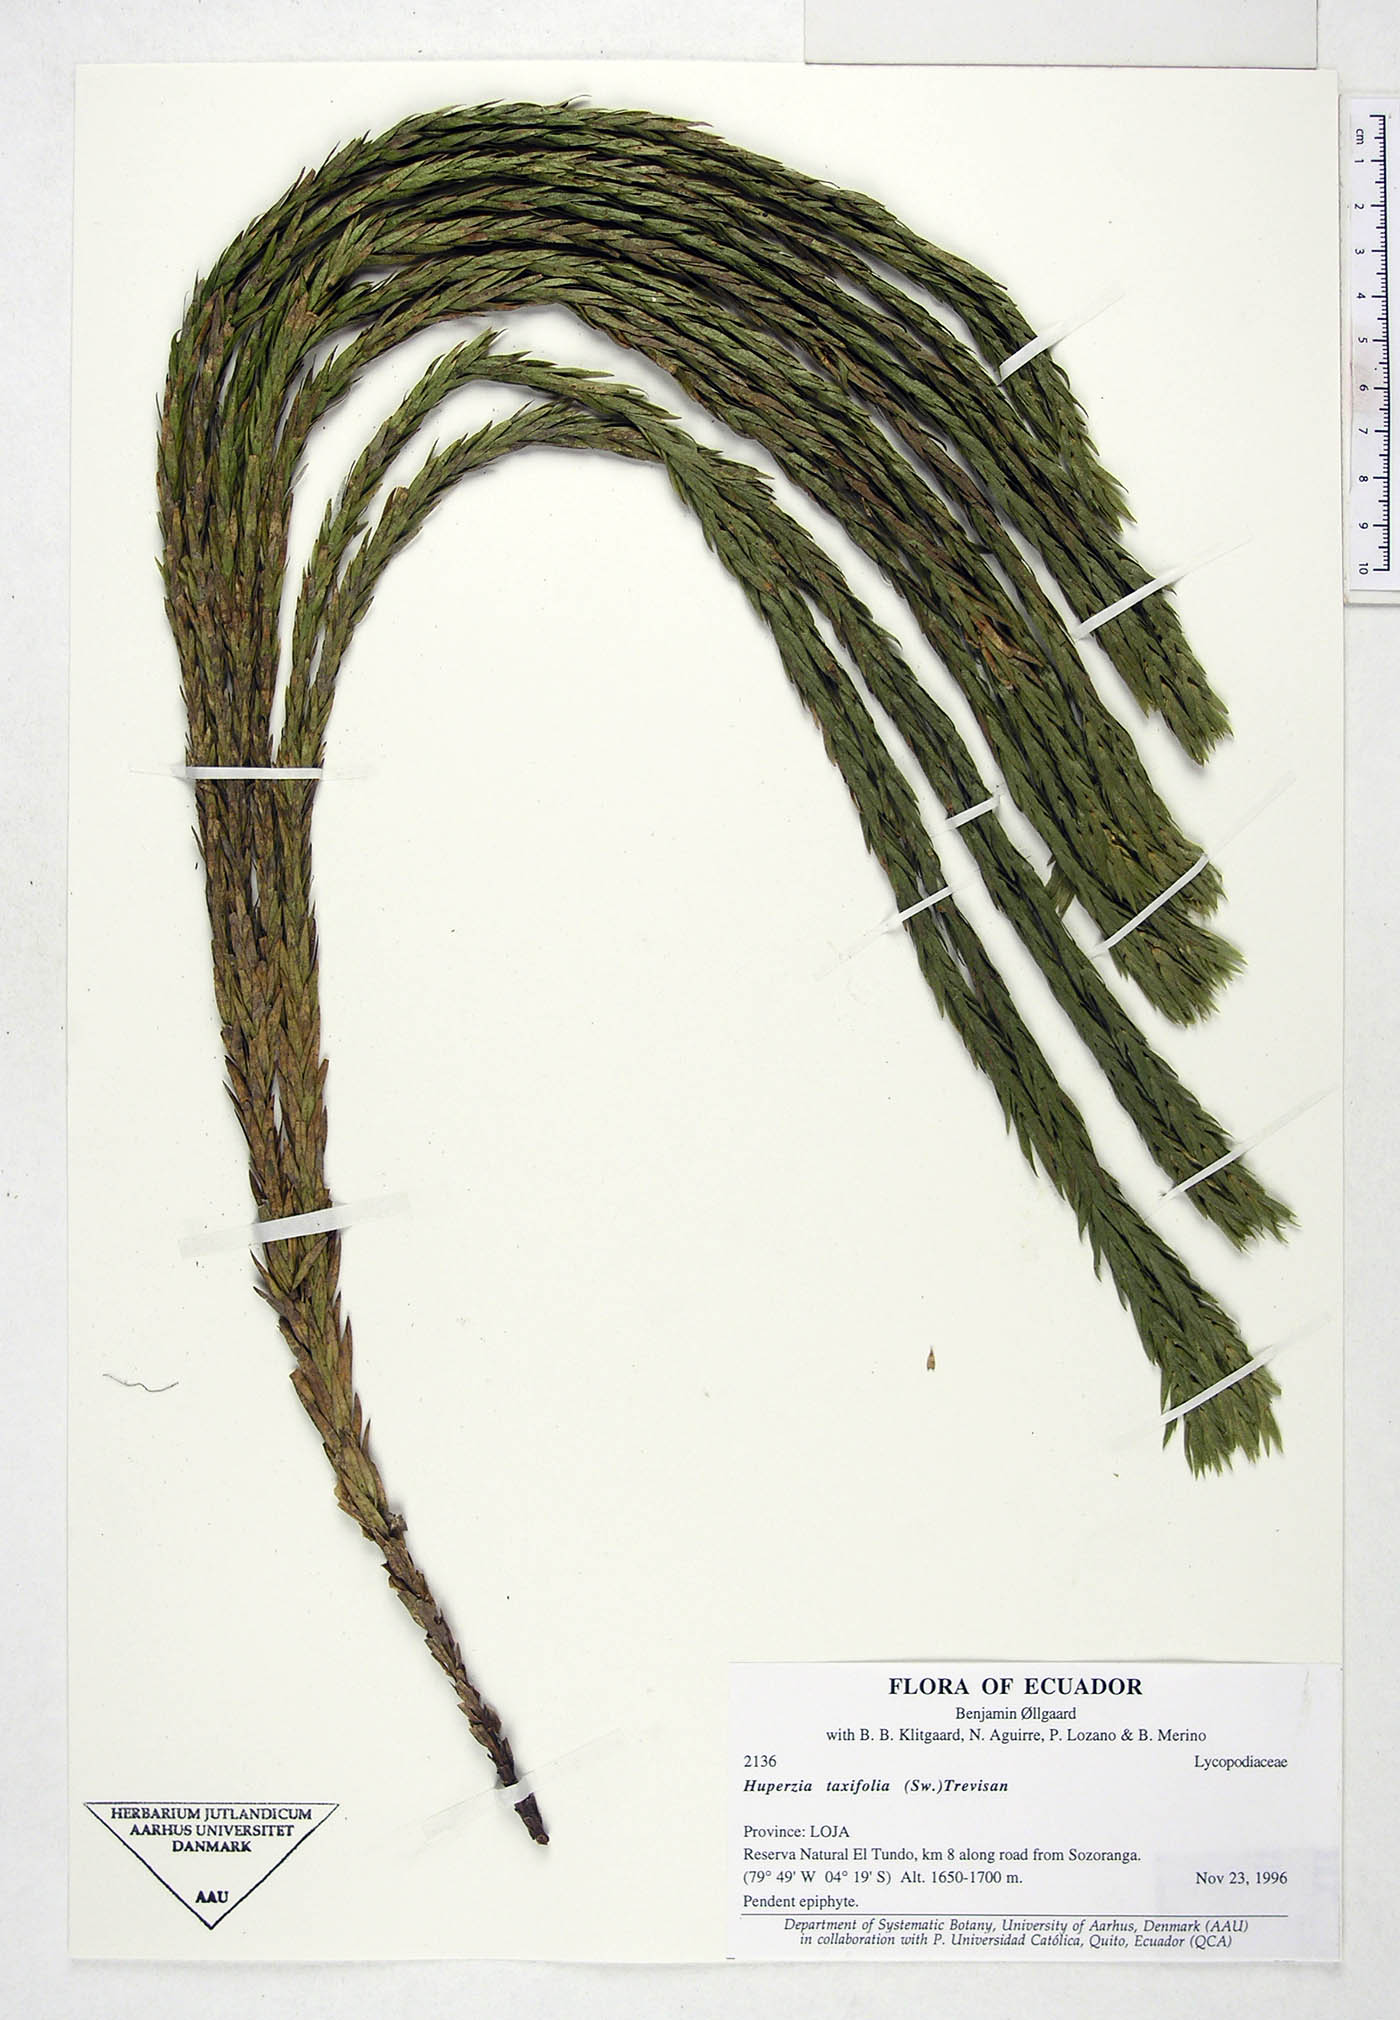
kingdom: Plantae
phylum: Tracheophyta
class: Lycopodiopsida
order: Lycopodiales
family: Lycopodiaceae
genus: Phlegmariurus
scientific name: Phlegmariurus taxifolius
